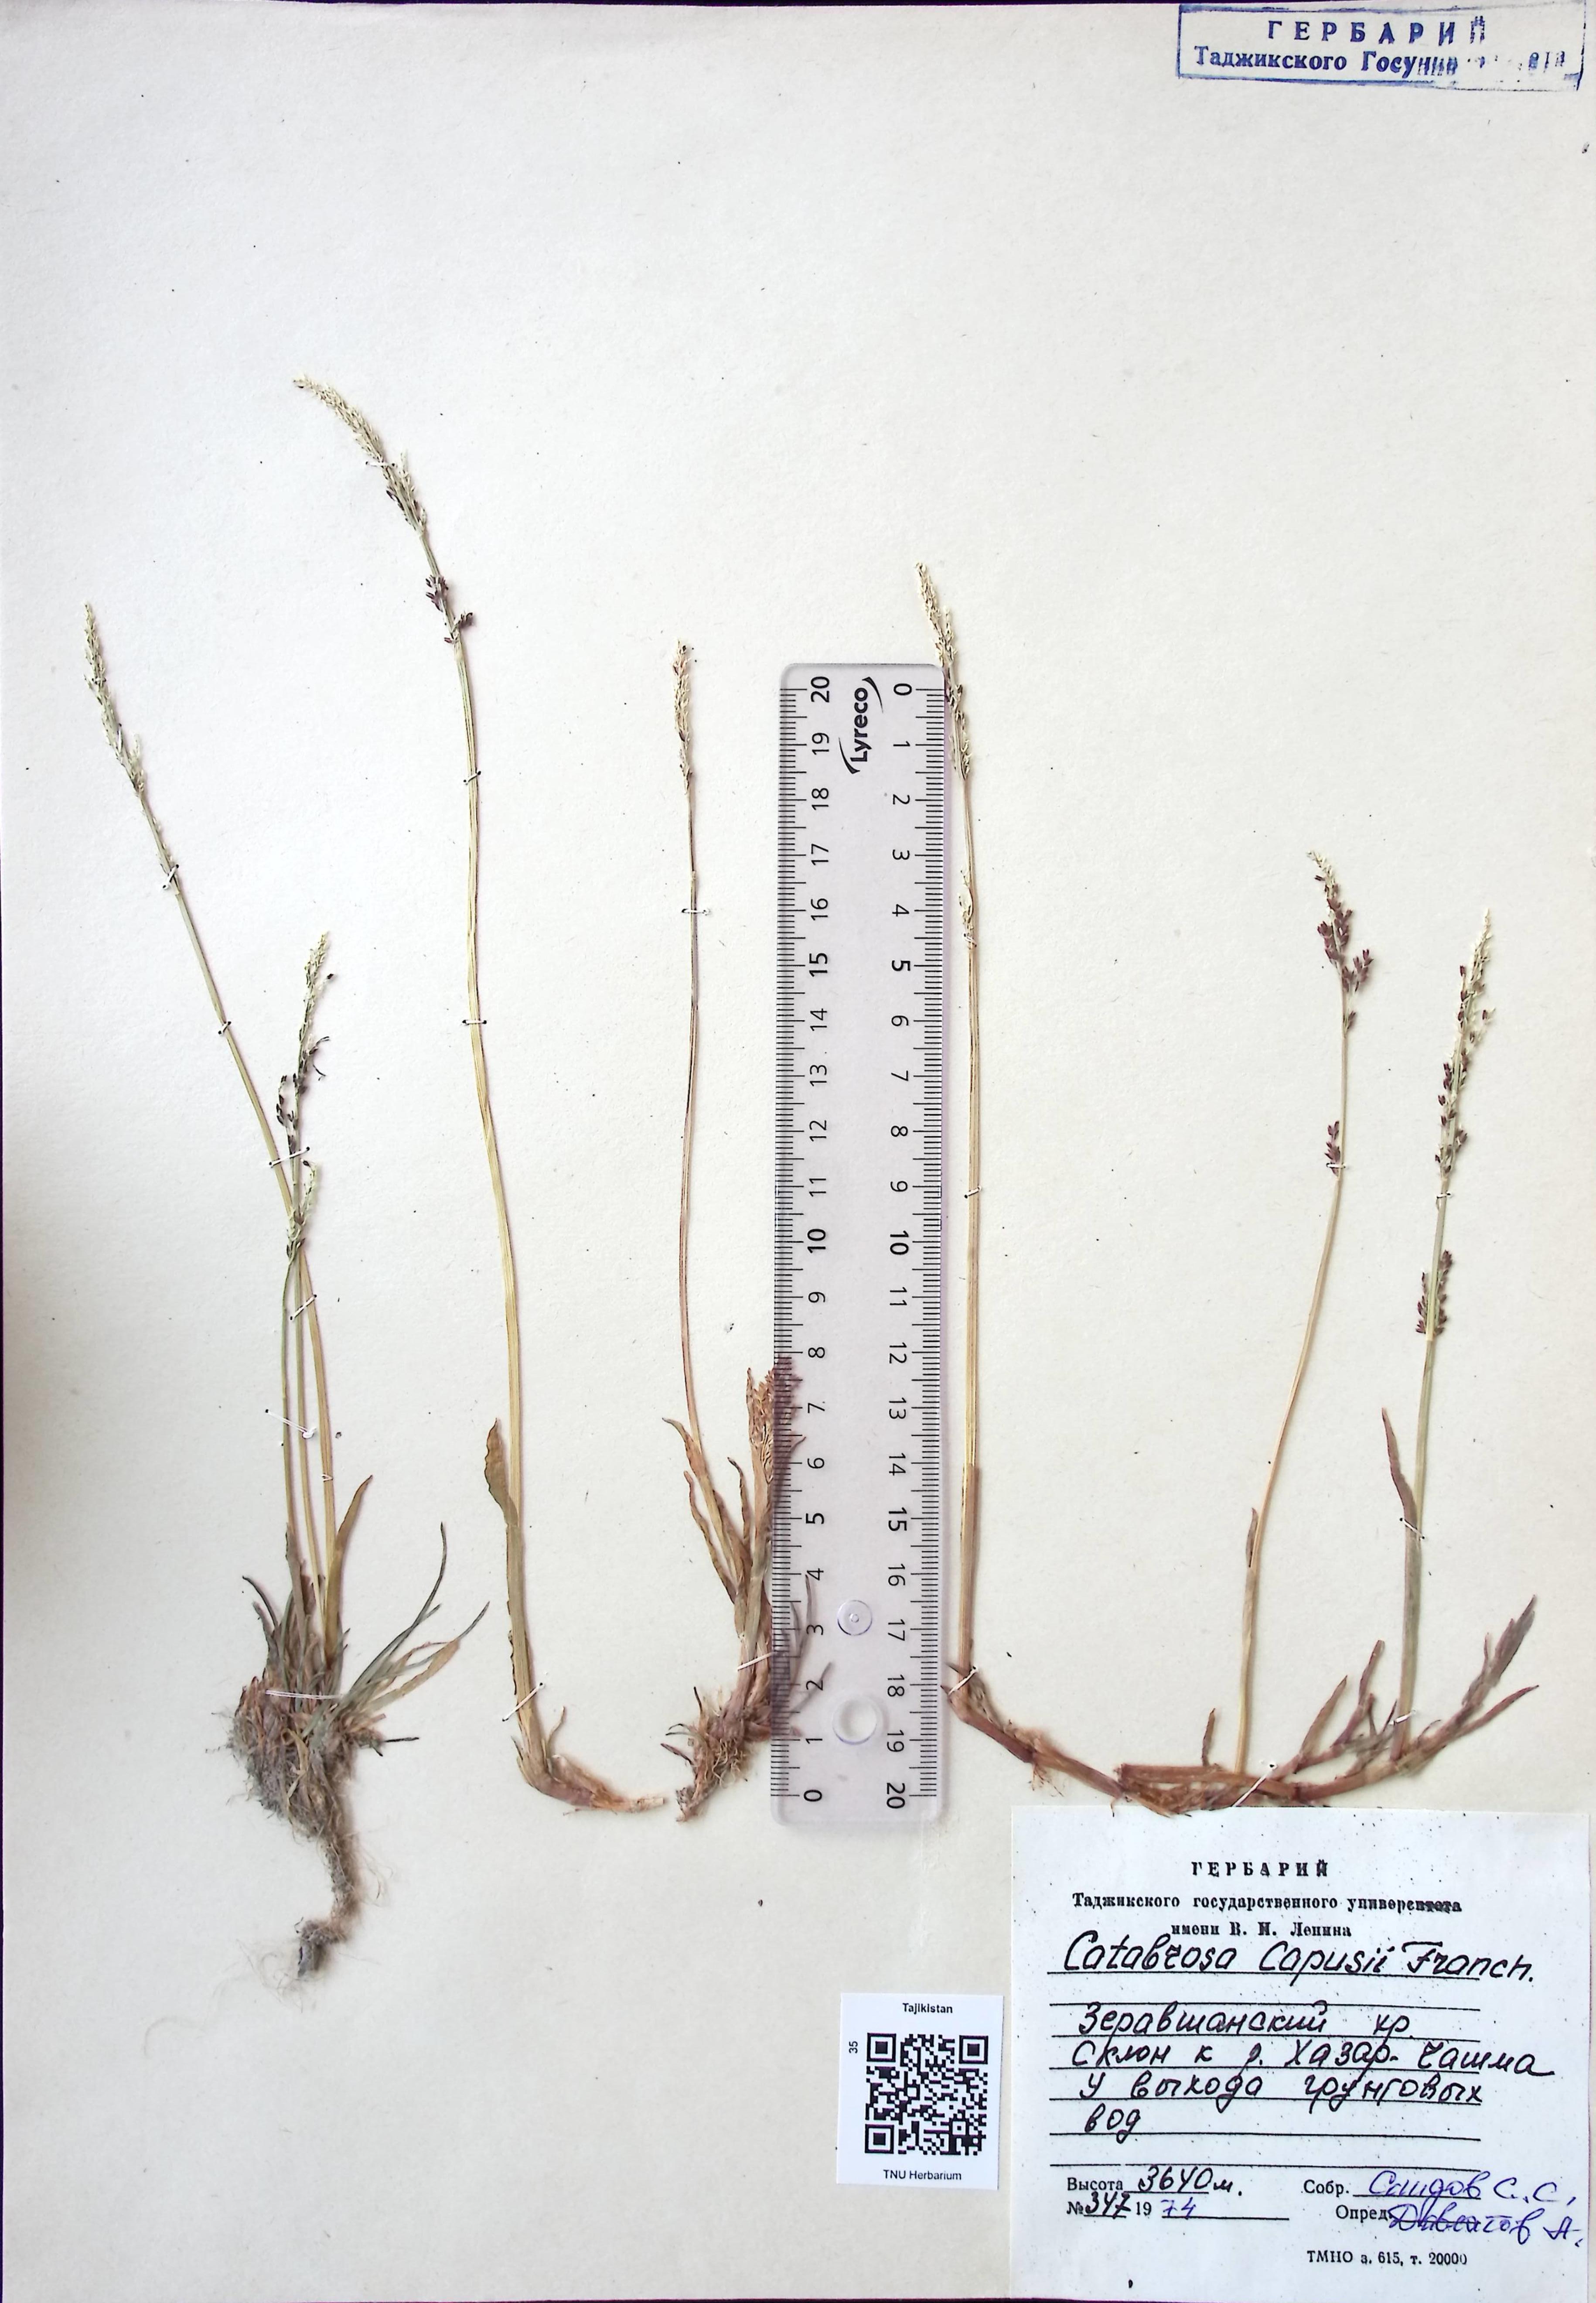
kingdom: Plantae
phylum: Tracheophyta
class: Liliopsida
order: Poales
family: Poaceae
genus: Catabrosa
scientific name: Catabrosa aquatica
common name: Whorl-grass
